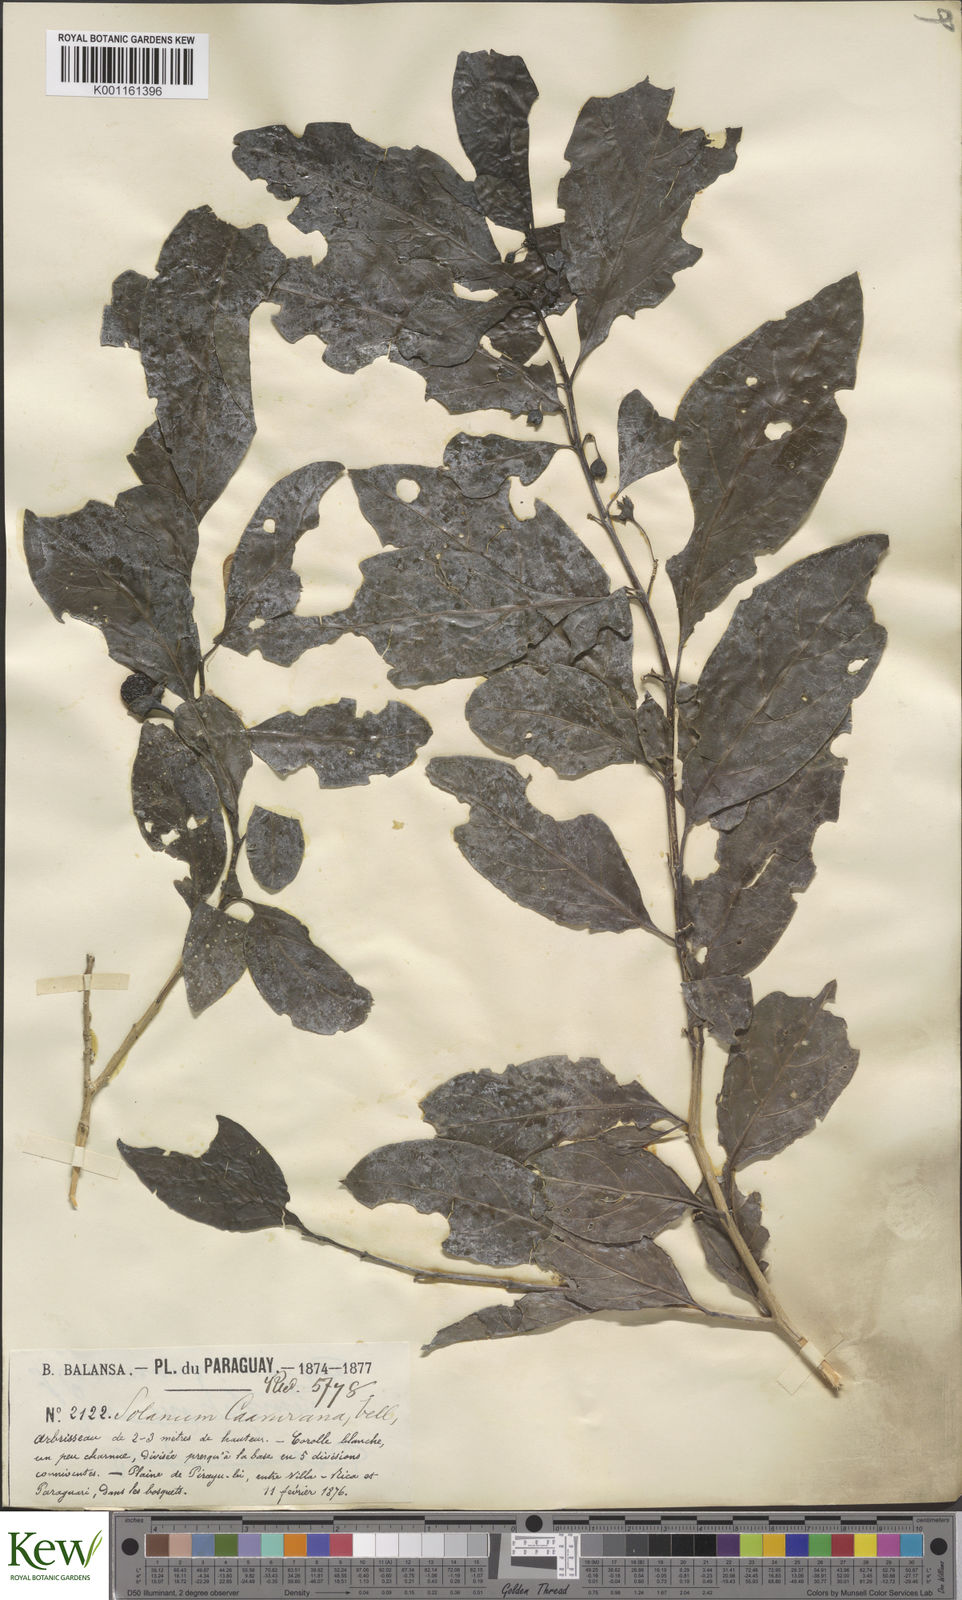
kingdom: Plantae
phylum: Tracheophyta
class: Magnoliopsida
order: Solanales
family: Solanaceae
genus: Solanum
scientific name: Solanum caavurana
